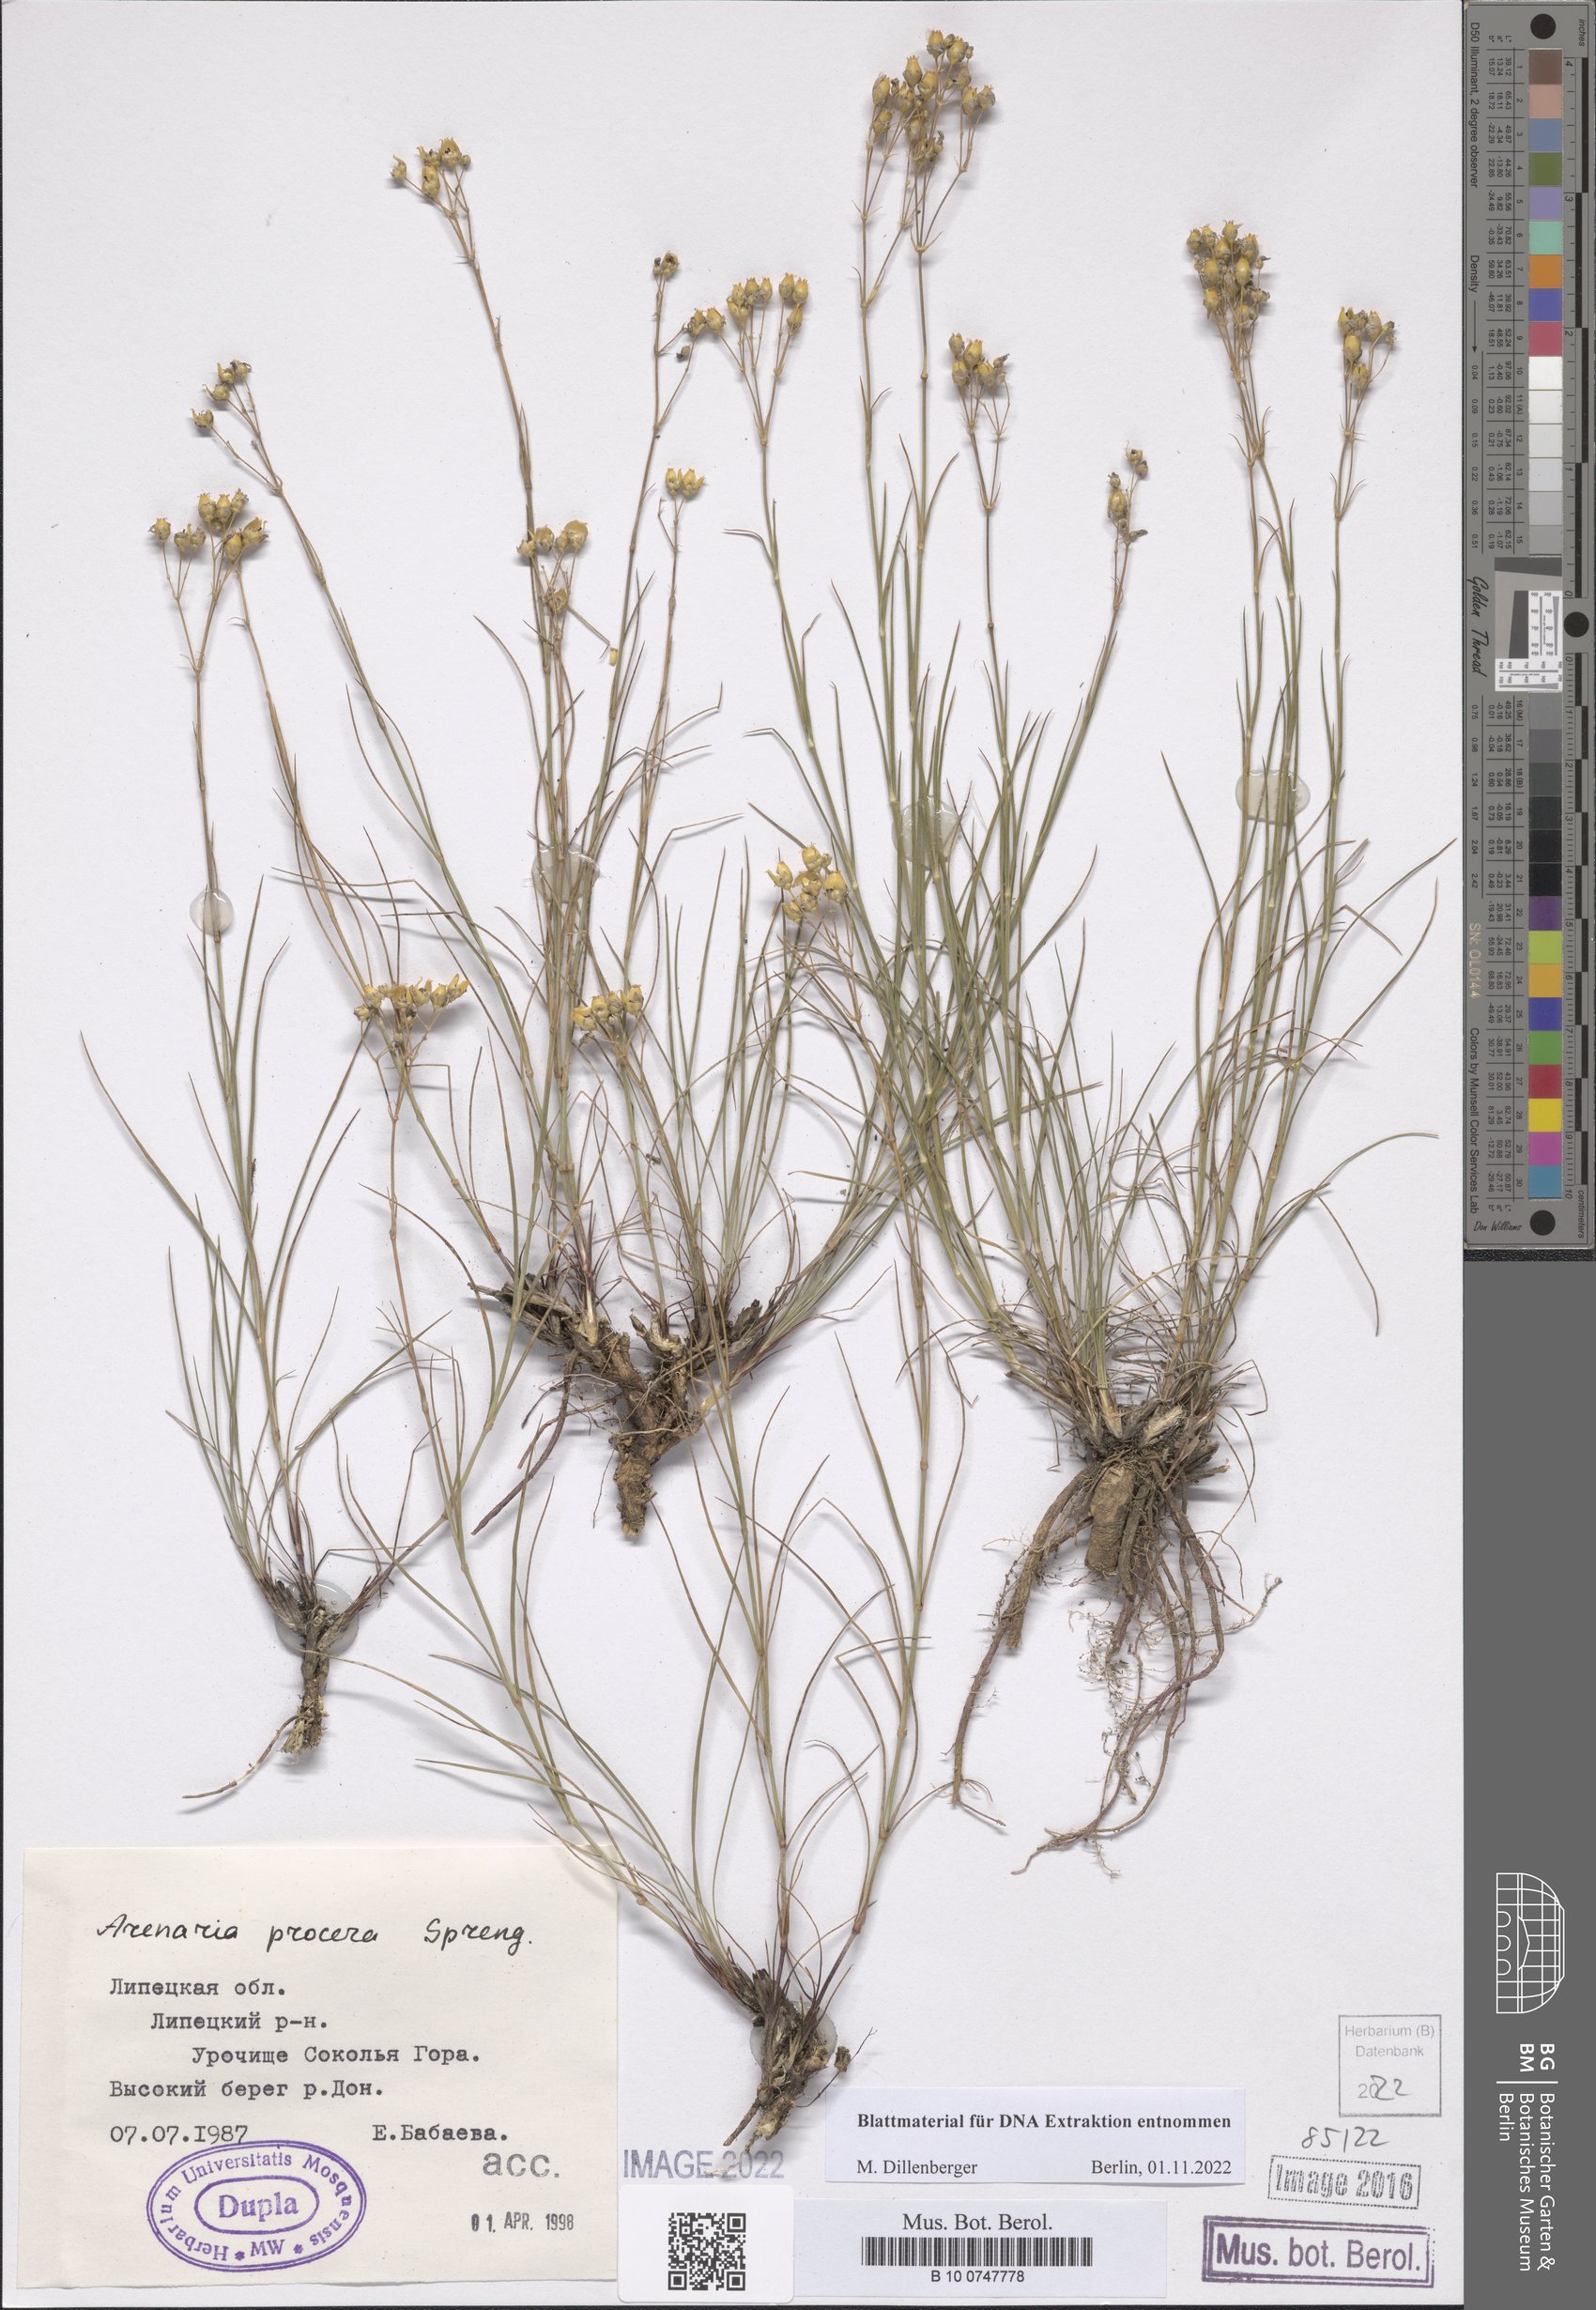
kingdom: Plantae
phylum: Tracheophyta
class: Magnoliopsida
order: Caryophyllales
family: Caryophyllaceae
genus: Eremogone
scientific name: Eremogone saxatilis
